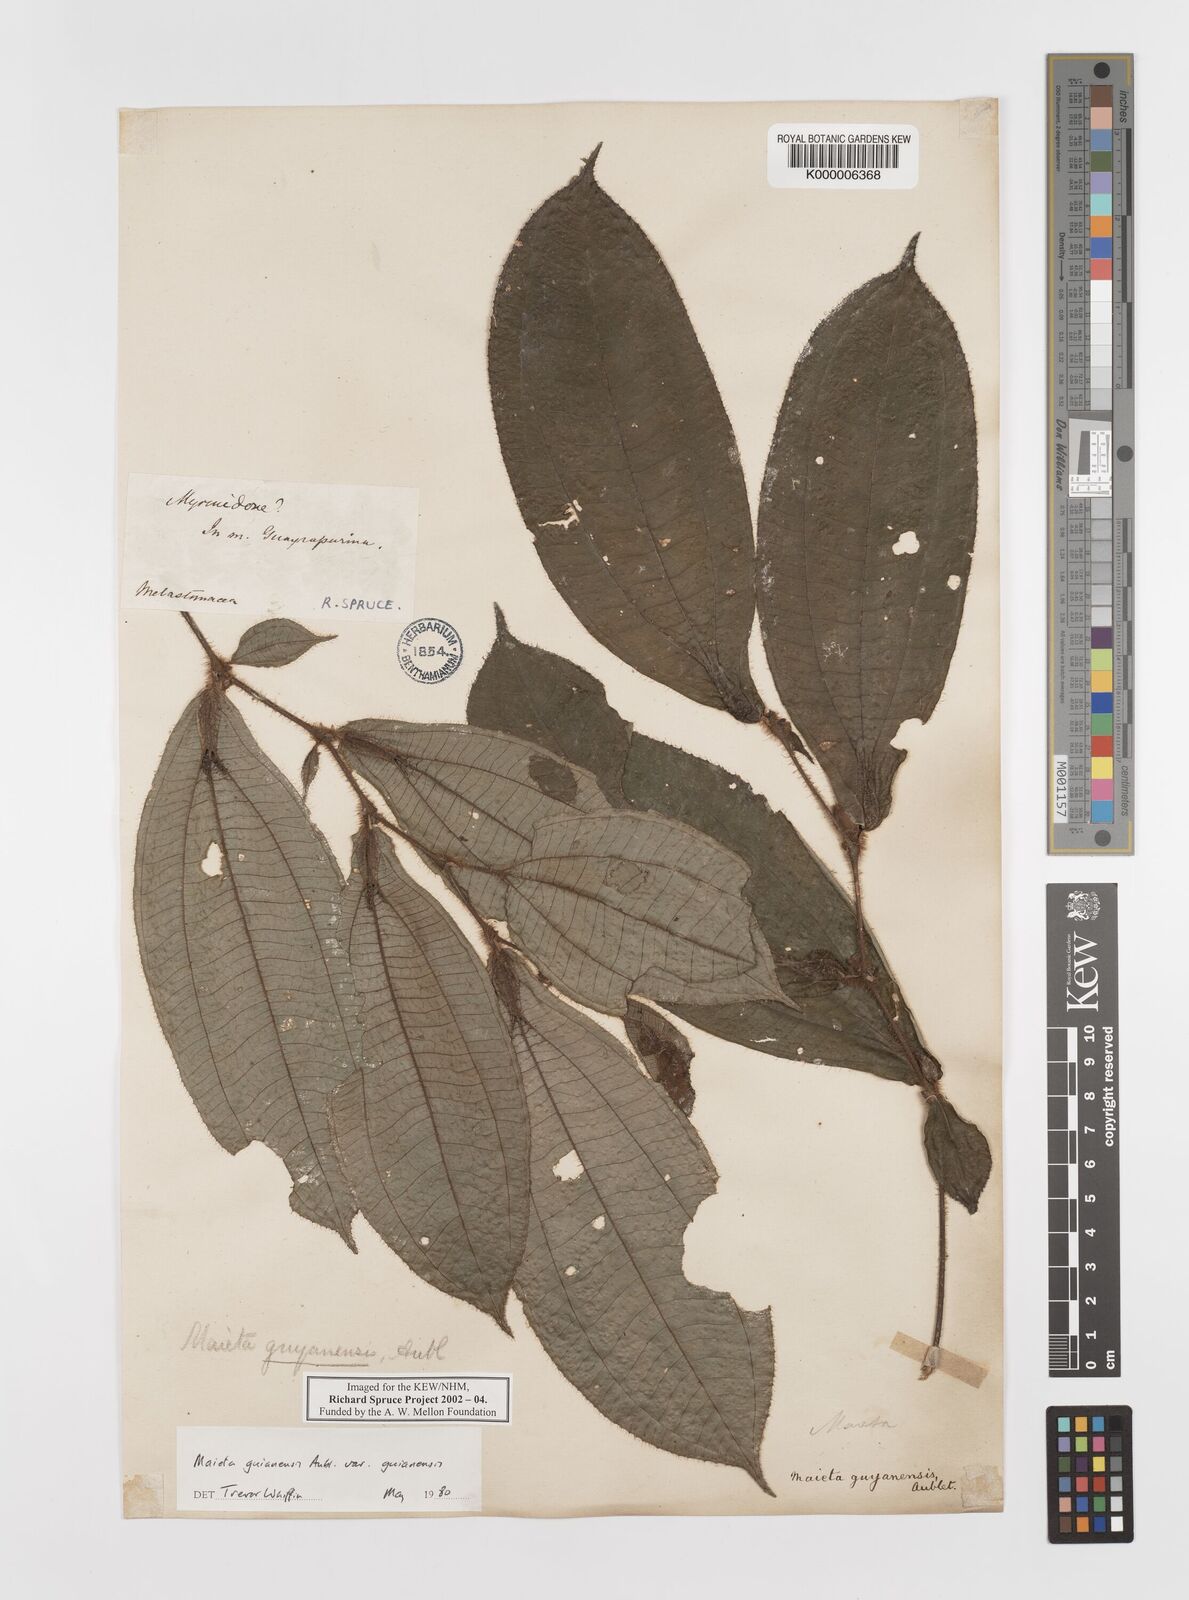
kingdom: Plantae
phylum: Tracheophyta
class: Magnoliopsida
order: Myrtales
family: Melastomataceae
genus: Miconia
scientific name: Miconia mayeta
